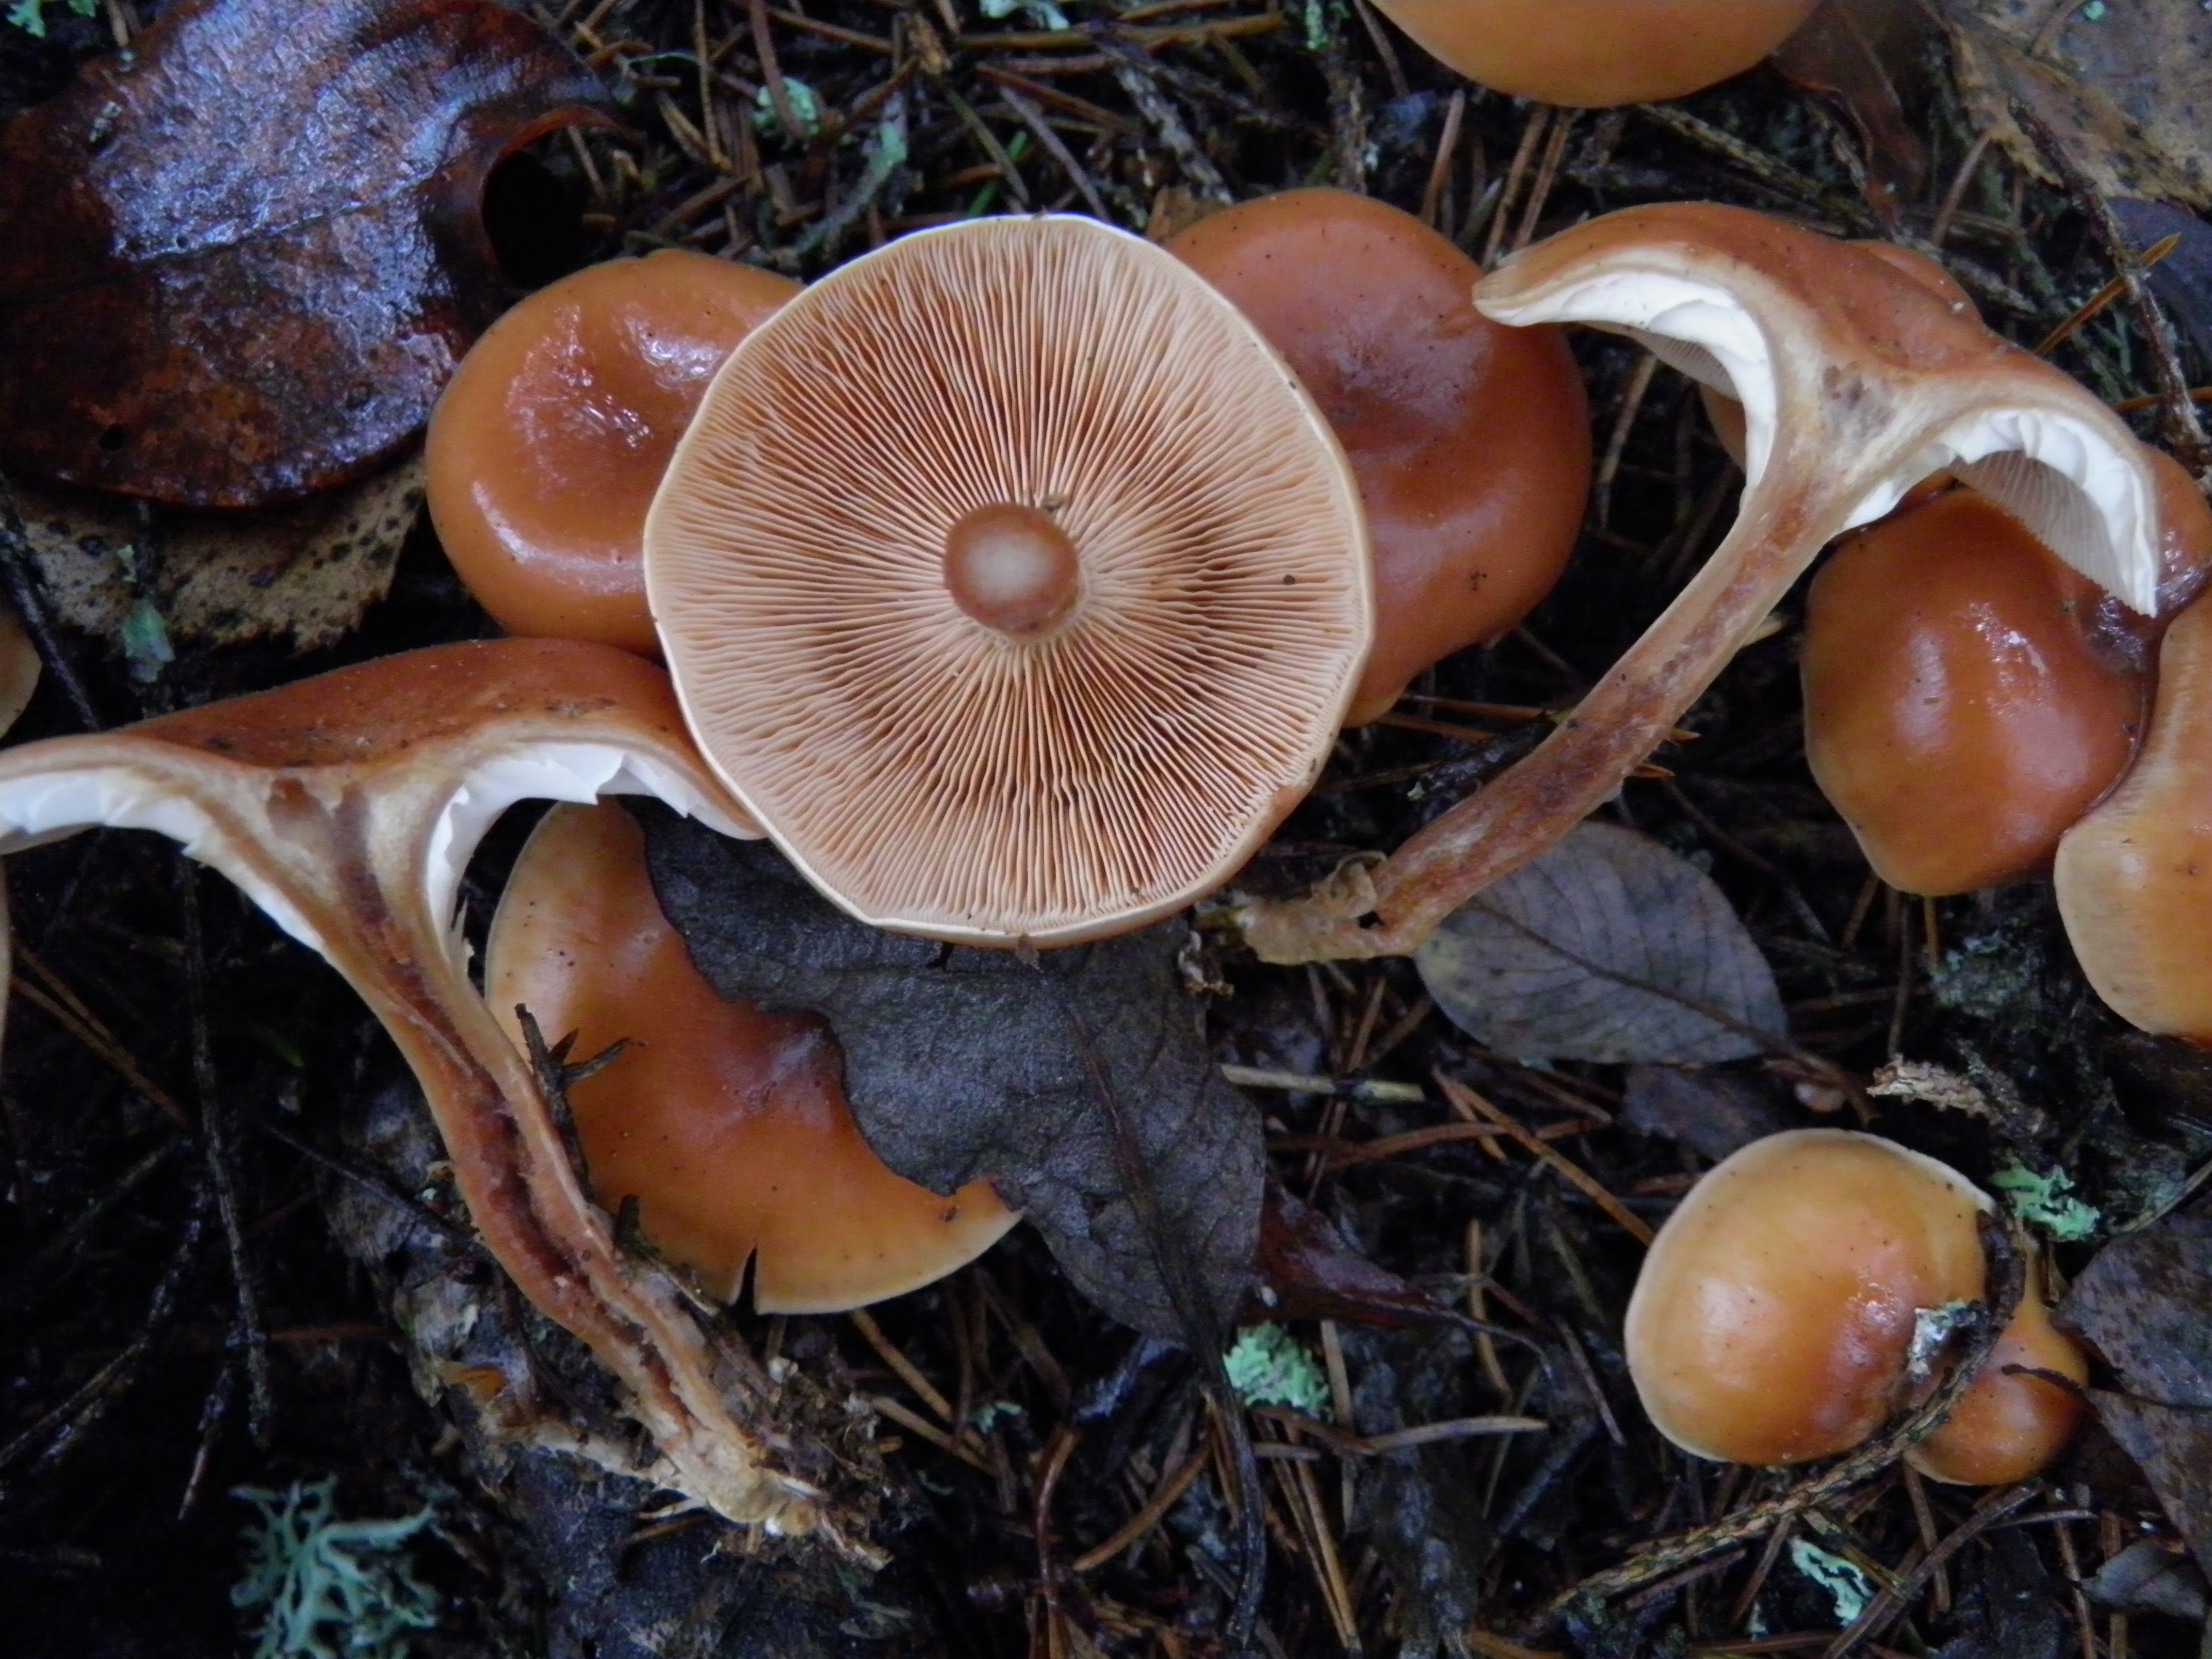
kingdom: Fungi
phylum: Basidiomycota
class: Agaricomycetes
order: Agaricales
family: Tricholomataceae
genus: Paralepista
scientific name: Paralepista flaccida
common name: Tawny funnel cap
